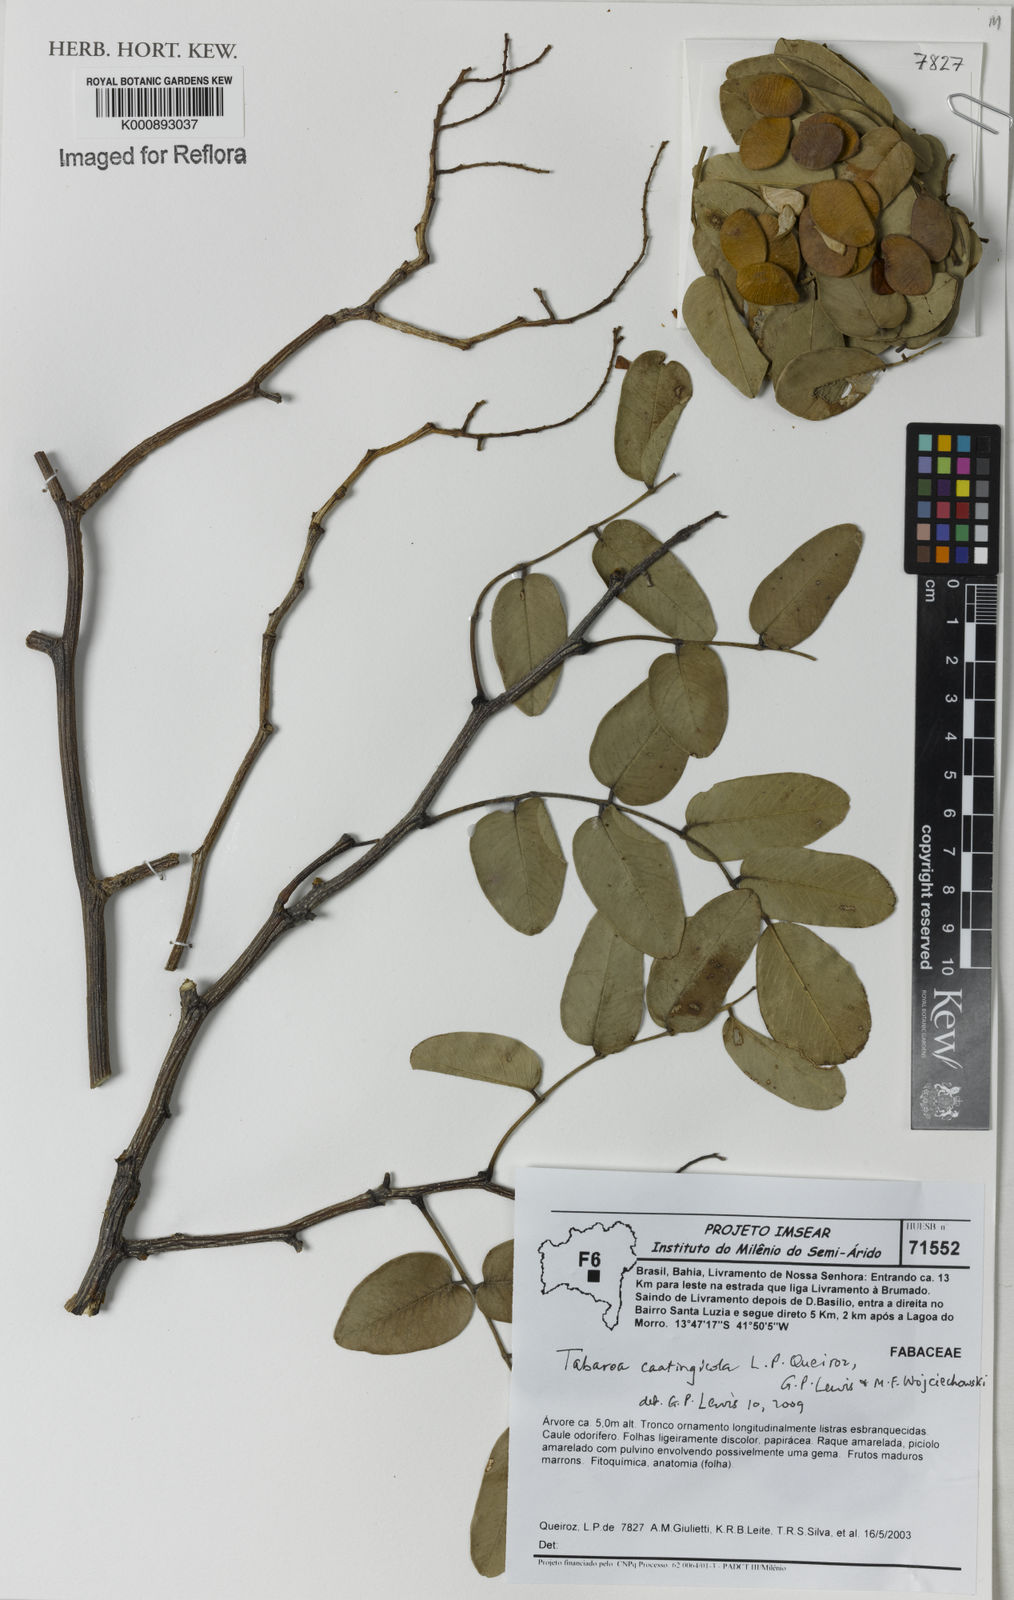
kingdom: Plantae
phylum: Tracheophyta
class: Magnoliopsida
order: Fabales
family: Fabaceae
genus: Tabaroa
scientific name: Tabaroa caatingicola
